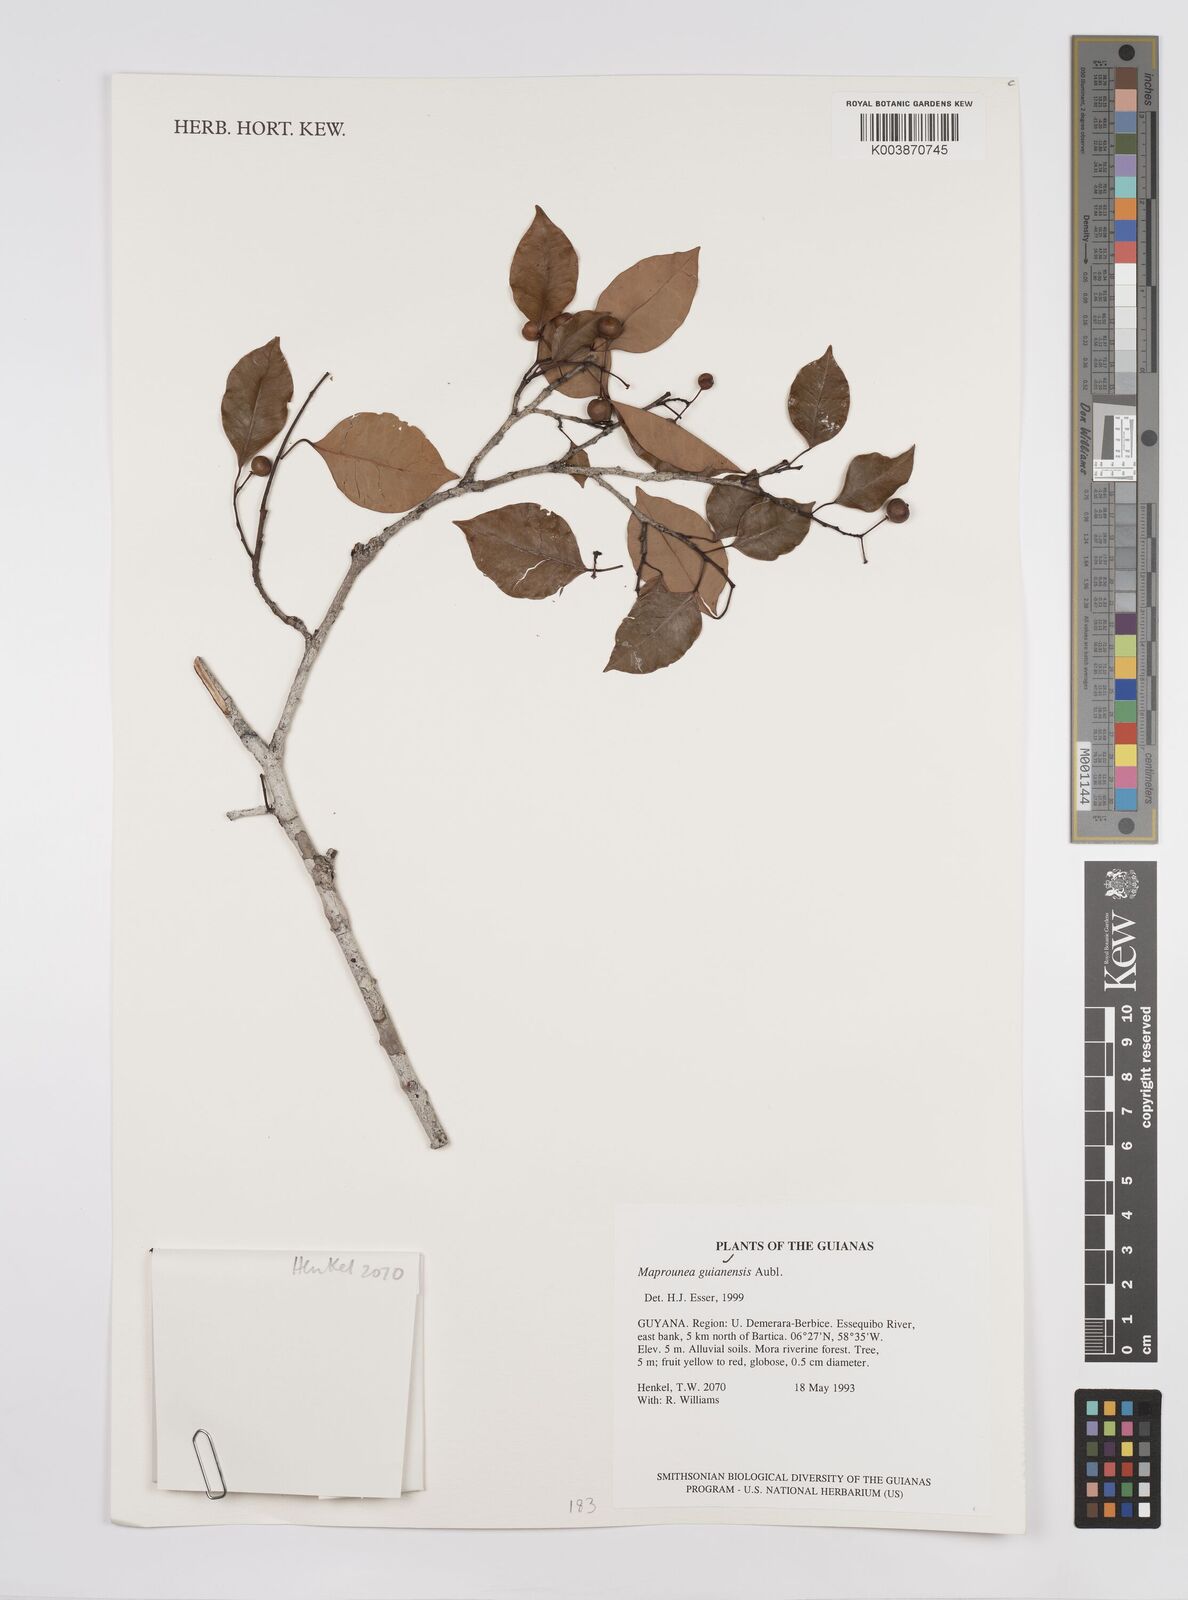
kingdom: Plantae
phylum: Tracheophyta
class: Magnoliopsida
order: Malpighiales
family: Euphorbiaceae
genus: Maprounea
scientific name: Maprounea guianensis
